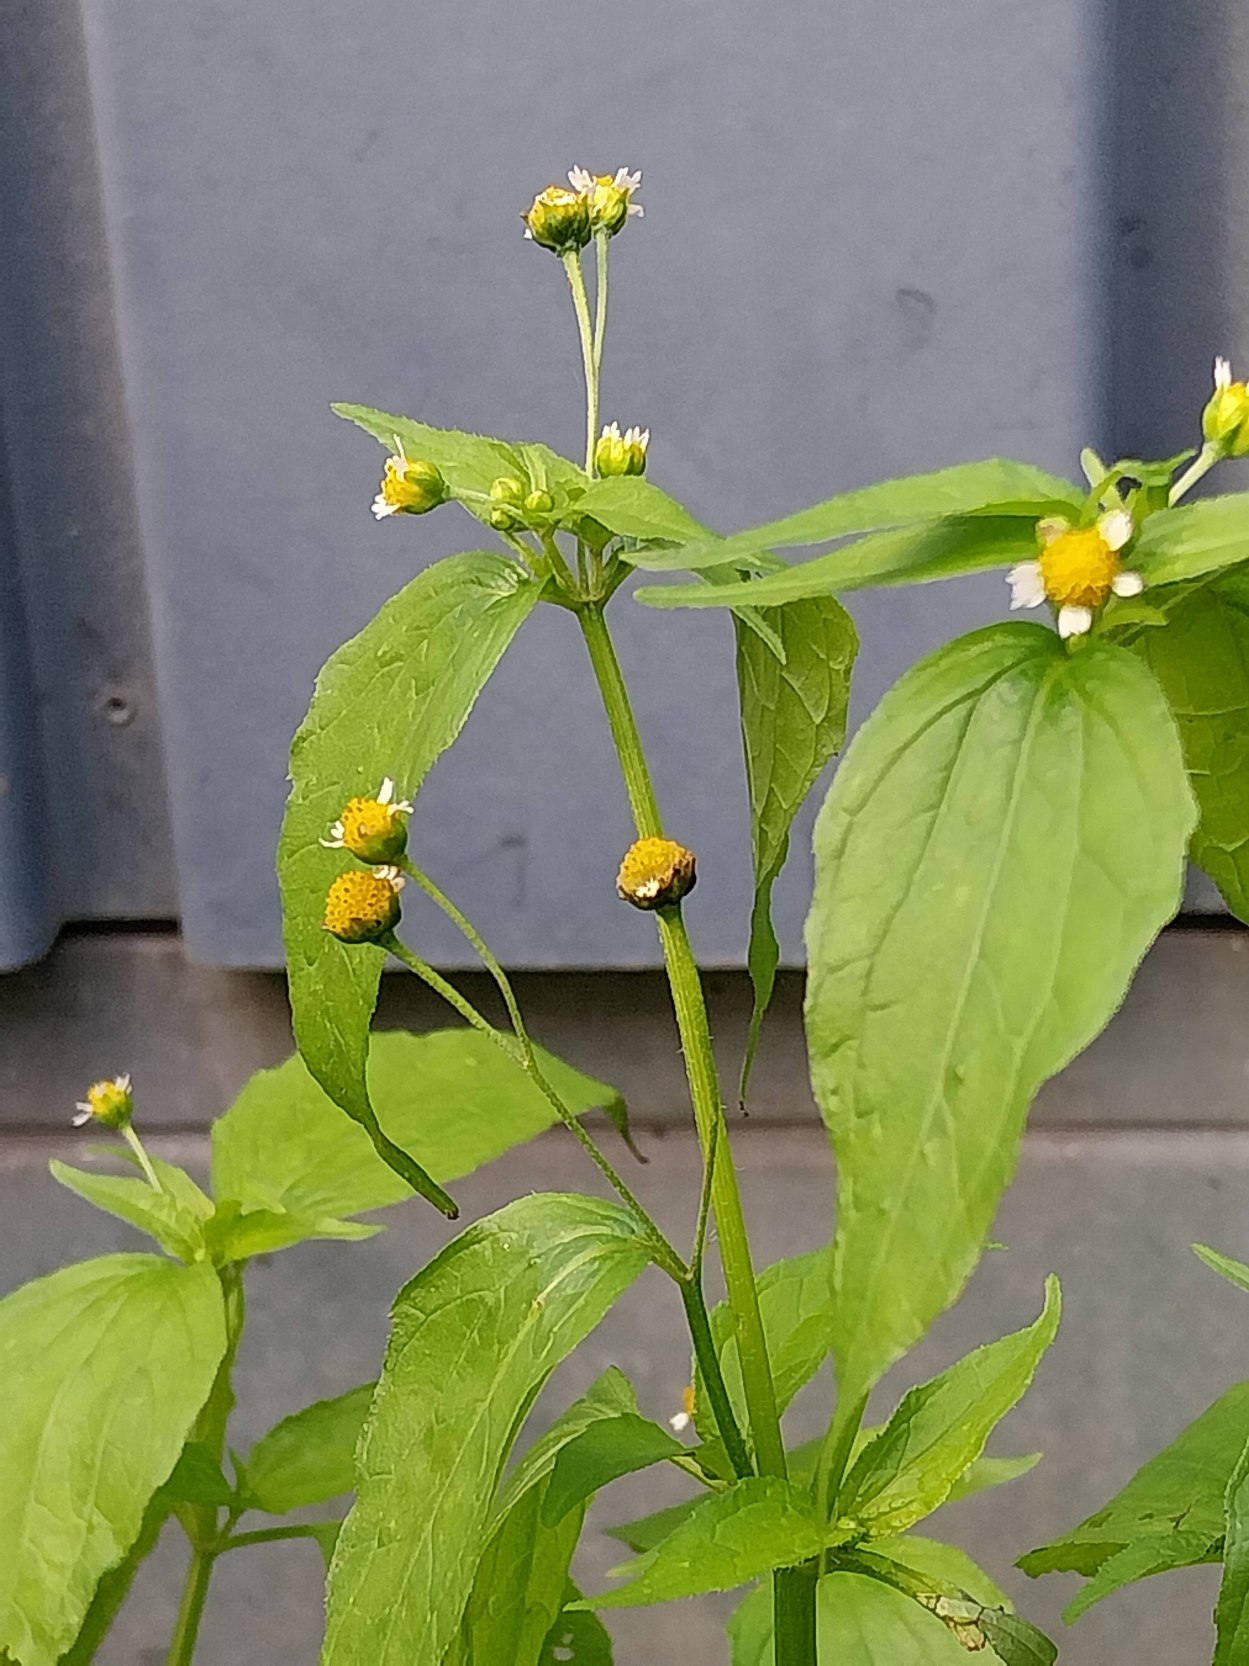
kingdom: Plantae
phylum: Tracheophyta
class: Magnoliopsida
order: Asterales
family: Asteraceae
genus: Galinsoga
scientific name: Galinsoga parviflora
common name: Håret kortstråle
